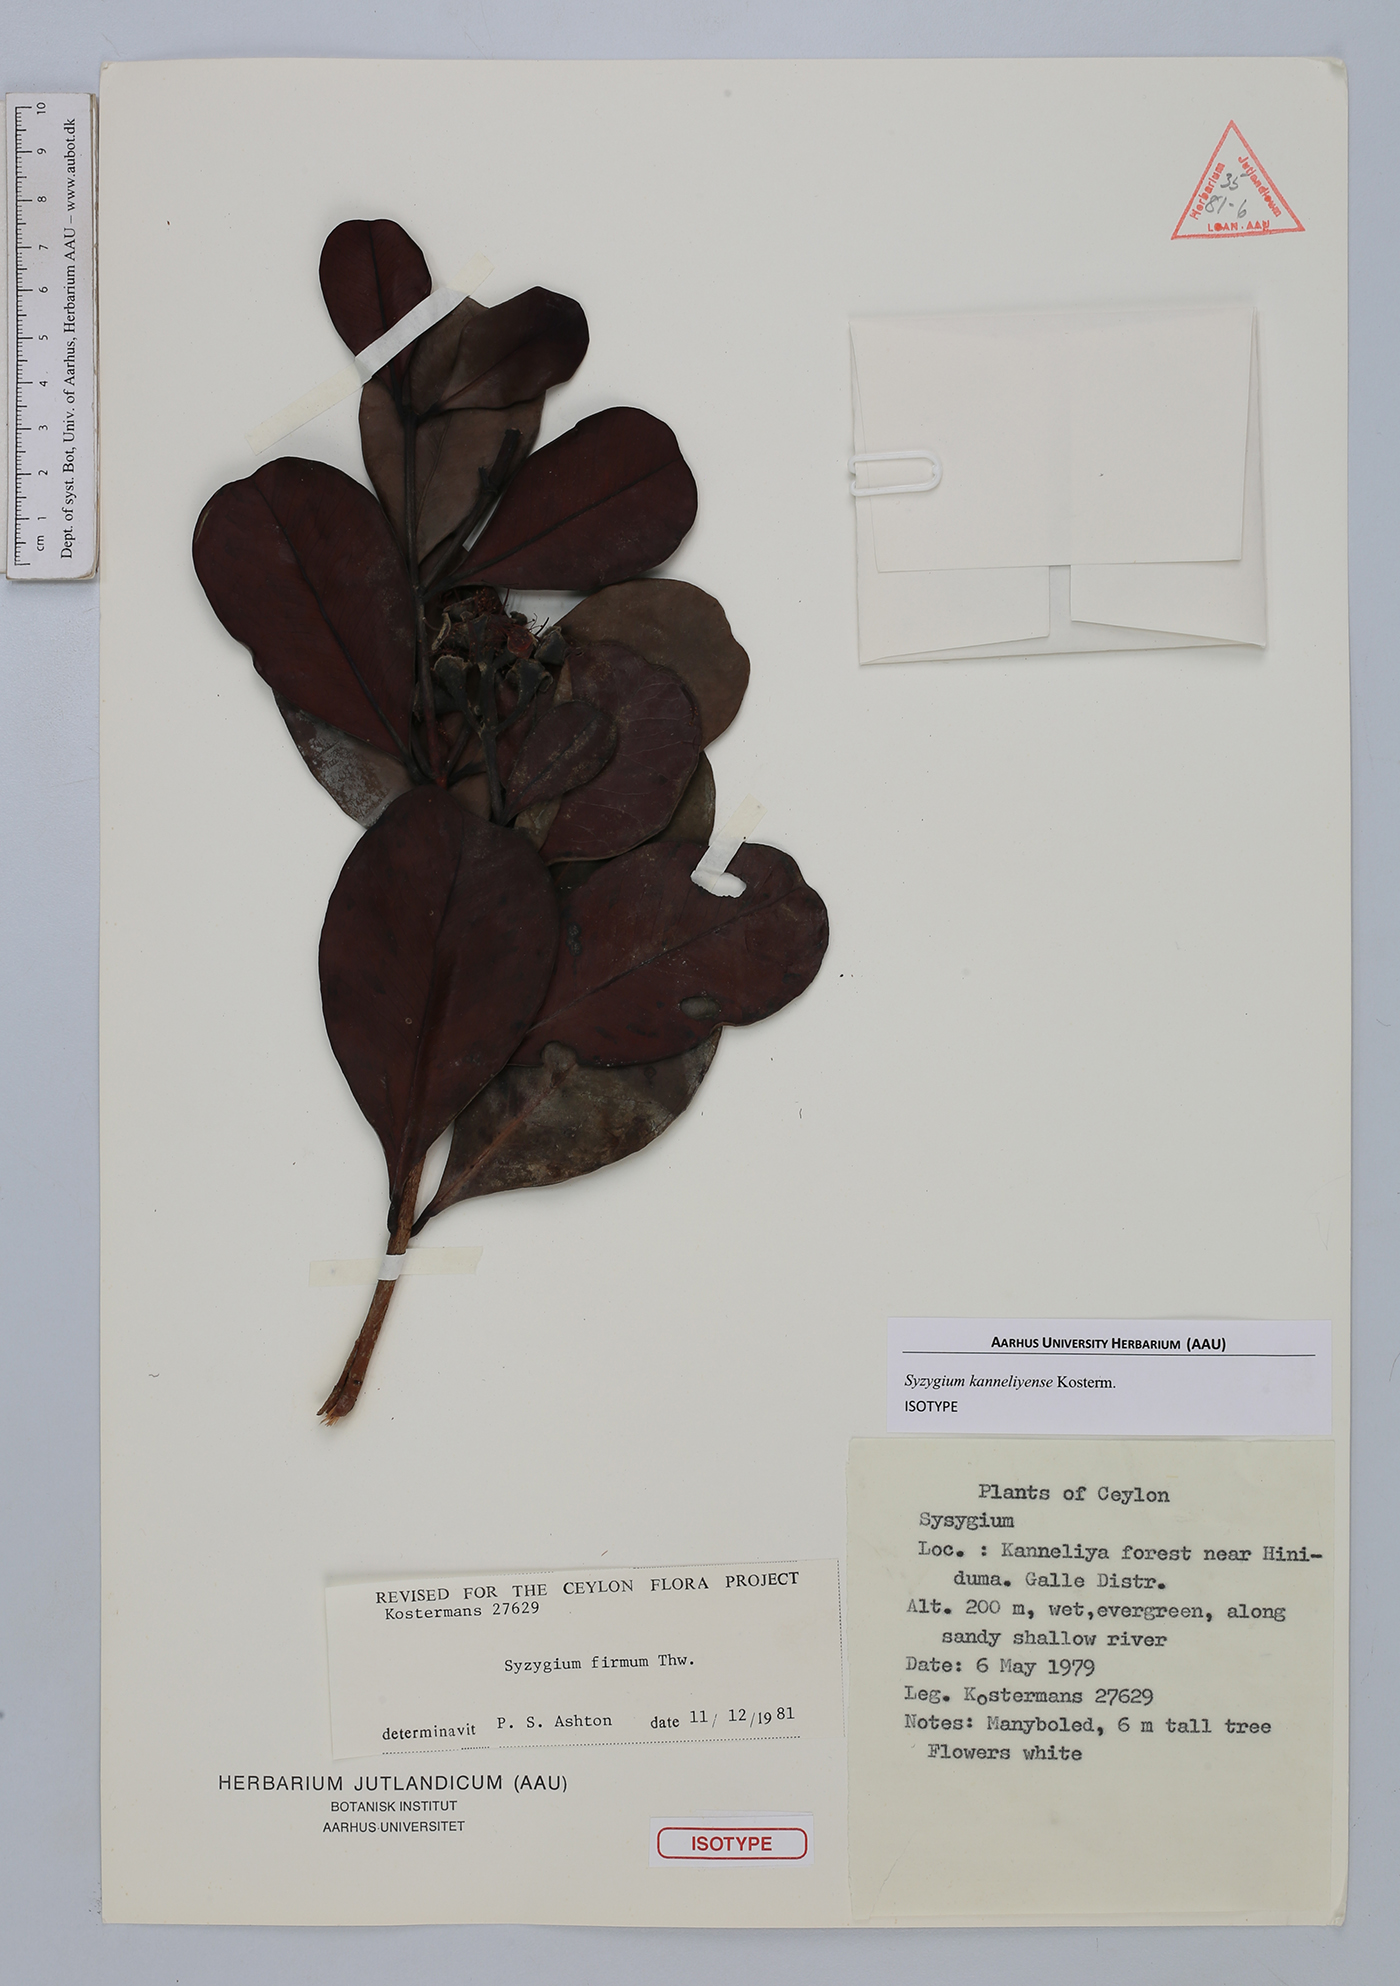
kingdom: Plantae
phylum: Tracheophyta
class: Magnoliopsida
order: Myrtales
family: Myrtaceae
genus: Syzygium
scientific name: Syzygium kanneliyense
